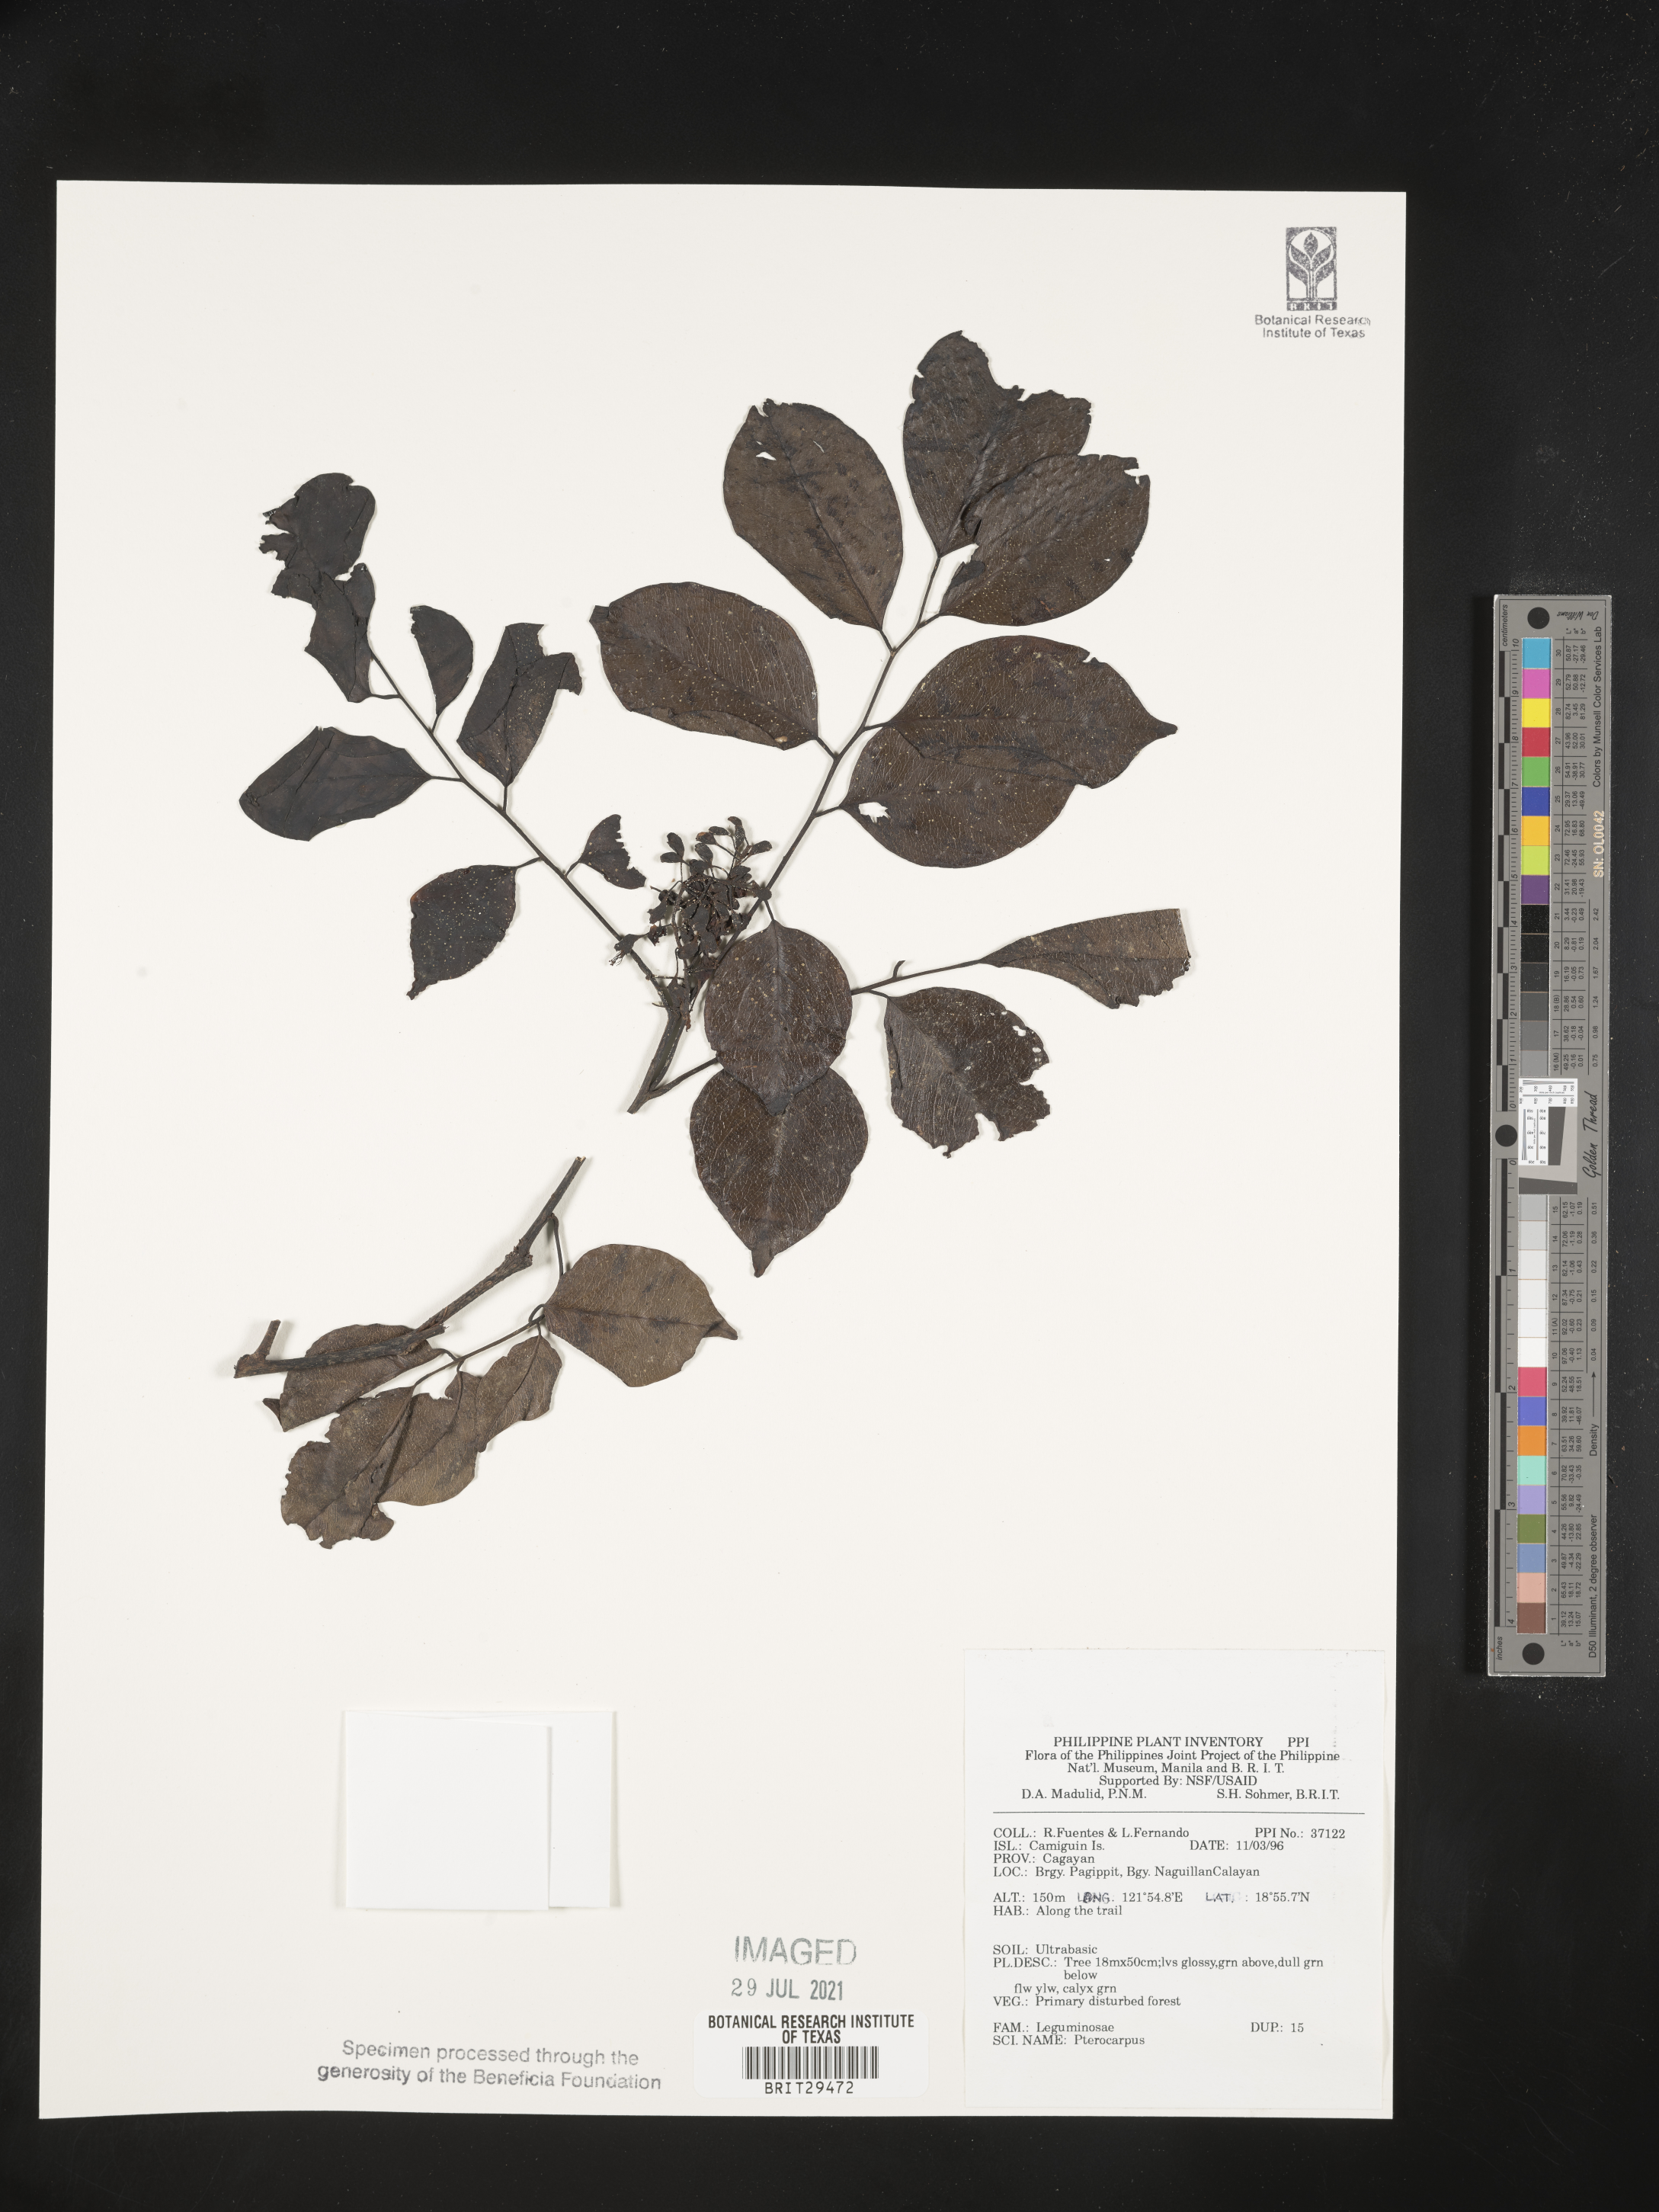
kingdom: Plantae
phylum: Tracheophyta
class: Magnoliopsida
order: Fabales
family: Fabaceae
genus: Pterocarpus
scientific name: Pterocarpus
